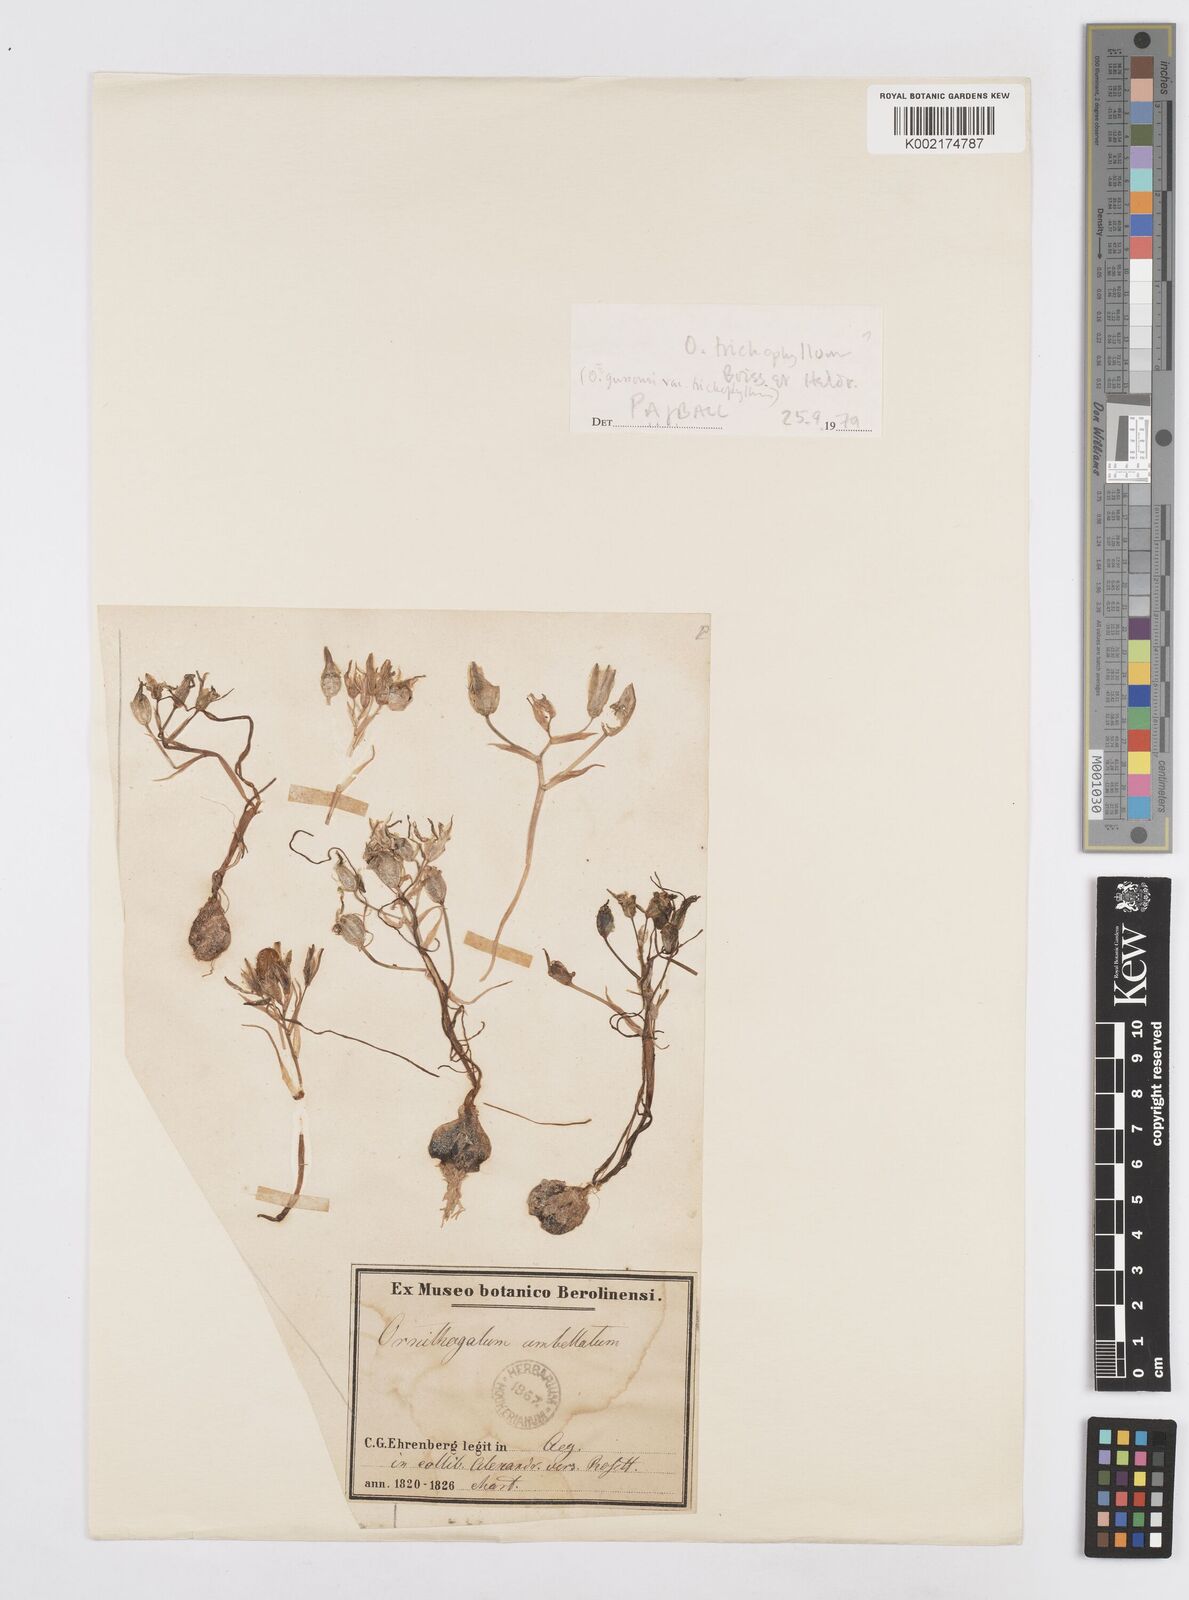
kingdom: Plantae
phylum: Tracheophyta
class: Liliopsida
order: Asparagales
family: Asparagaceae
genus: Ornithogalum
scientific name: Ornithogalum trichophyllum
